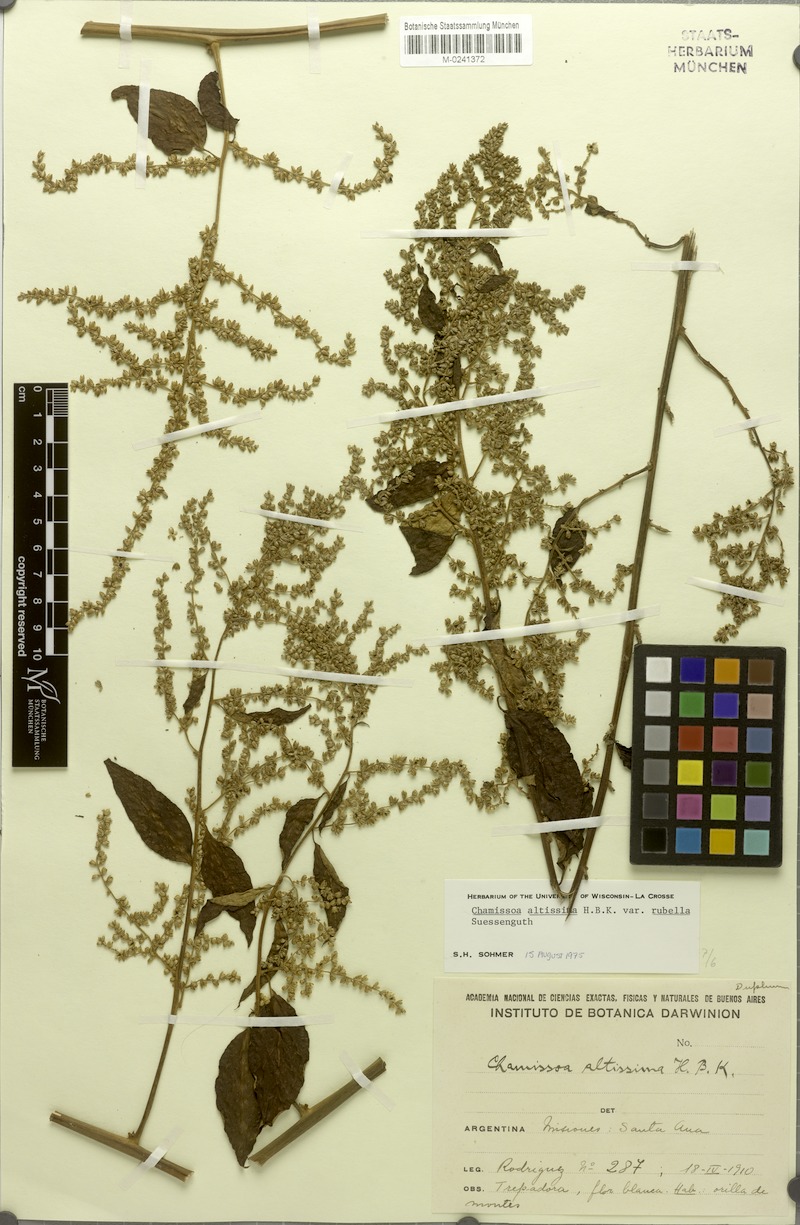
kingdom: Plantae
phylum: Tracheophyta
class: Magnoliopsida
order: Caryophyllales
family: Amaranthaceae
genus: Chamissoa
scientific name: Chamissoa altissima
